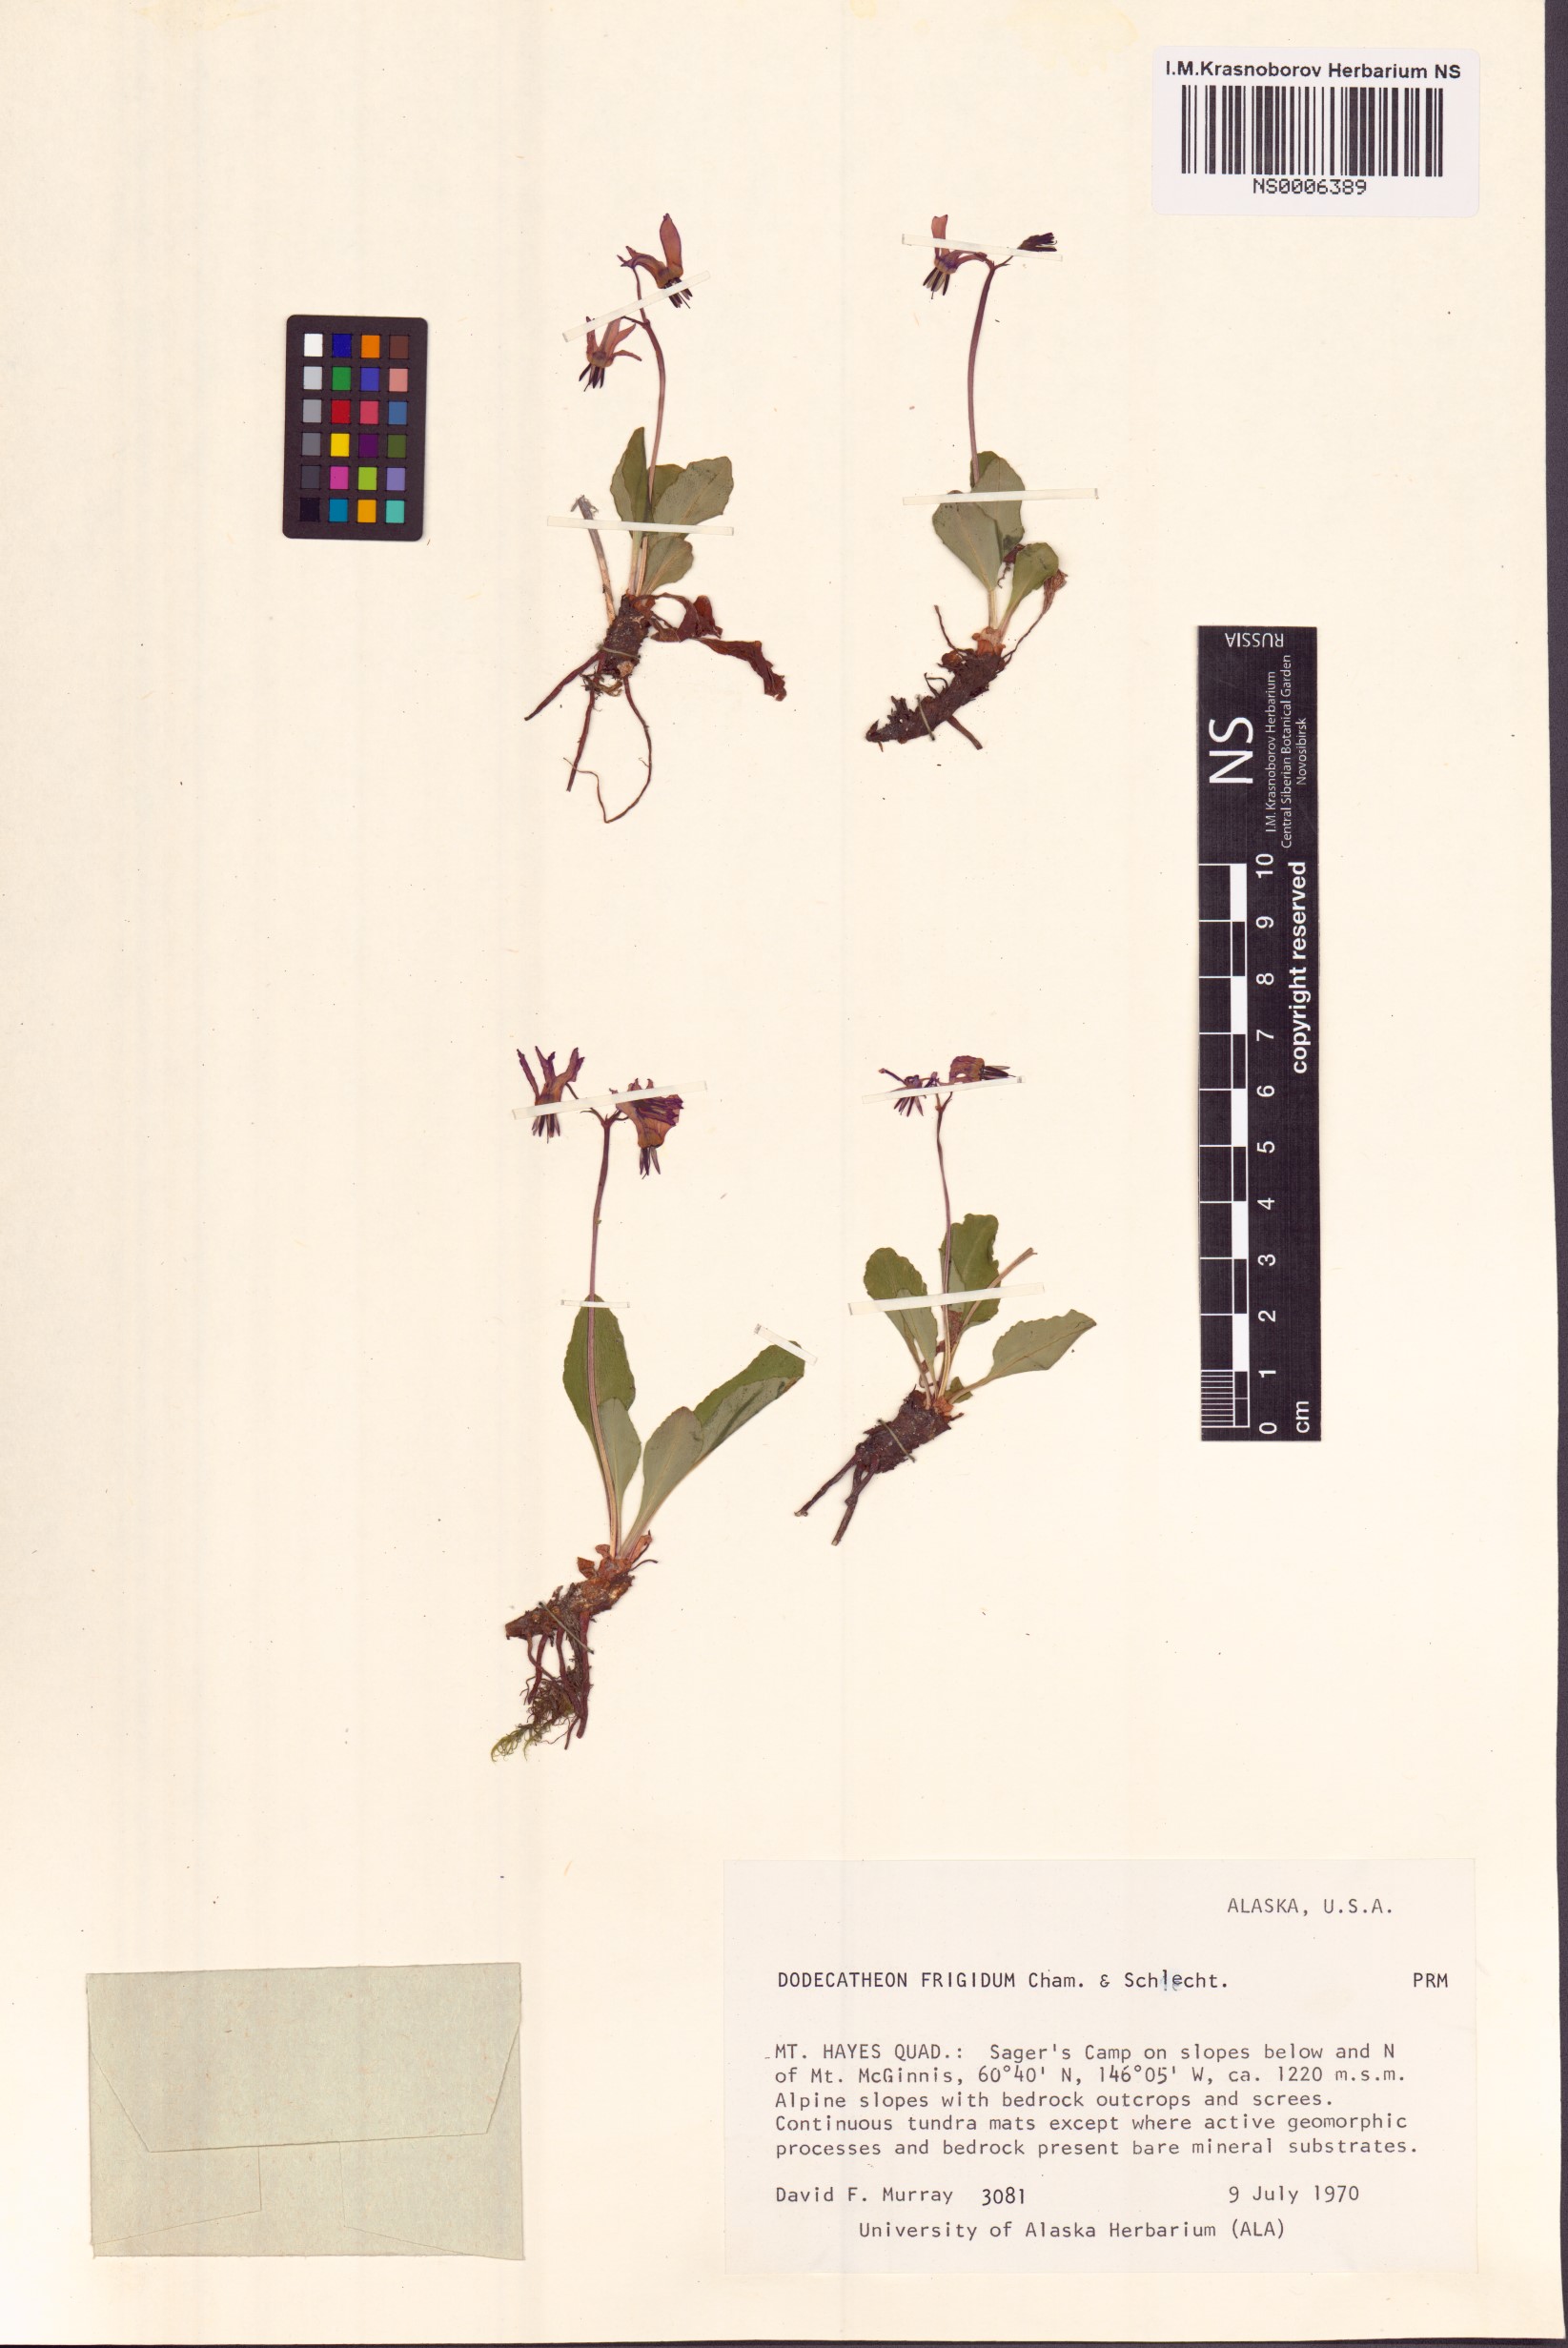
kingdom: Plantae
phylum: Tracheophyta
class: Magnoliopsida
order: Ericales
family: Primulaceae
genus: Dodecatheon
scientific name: Dodecatheon frigidum
